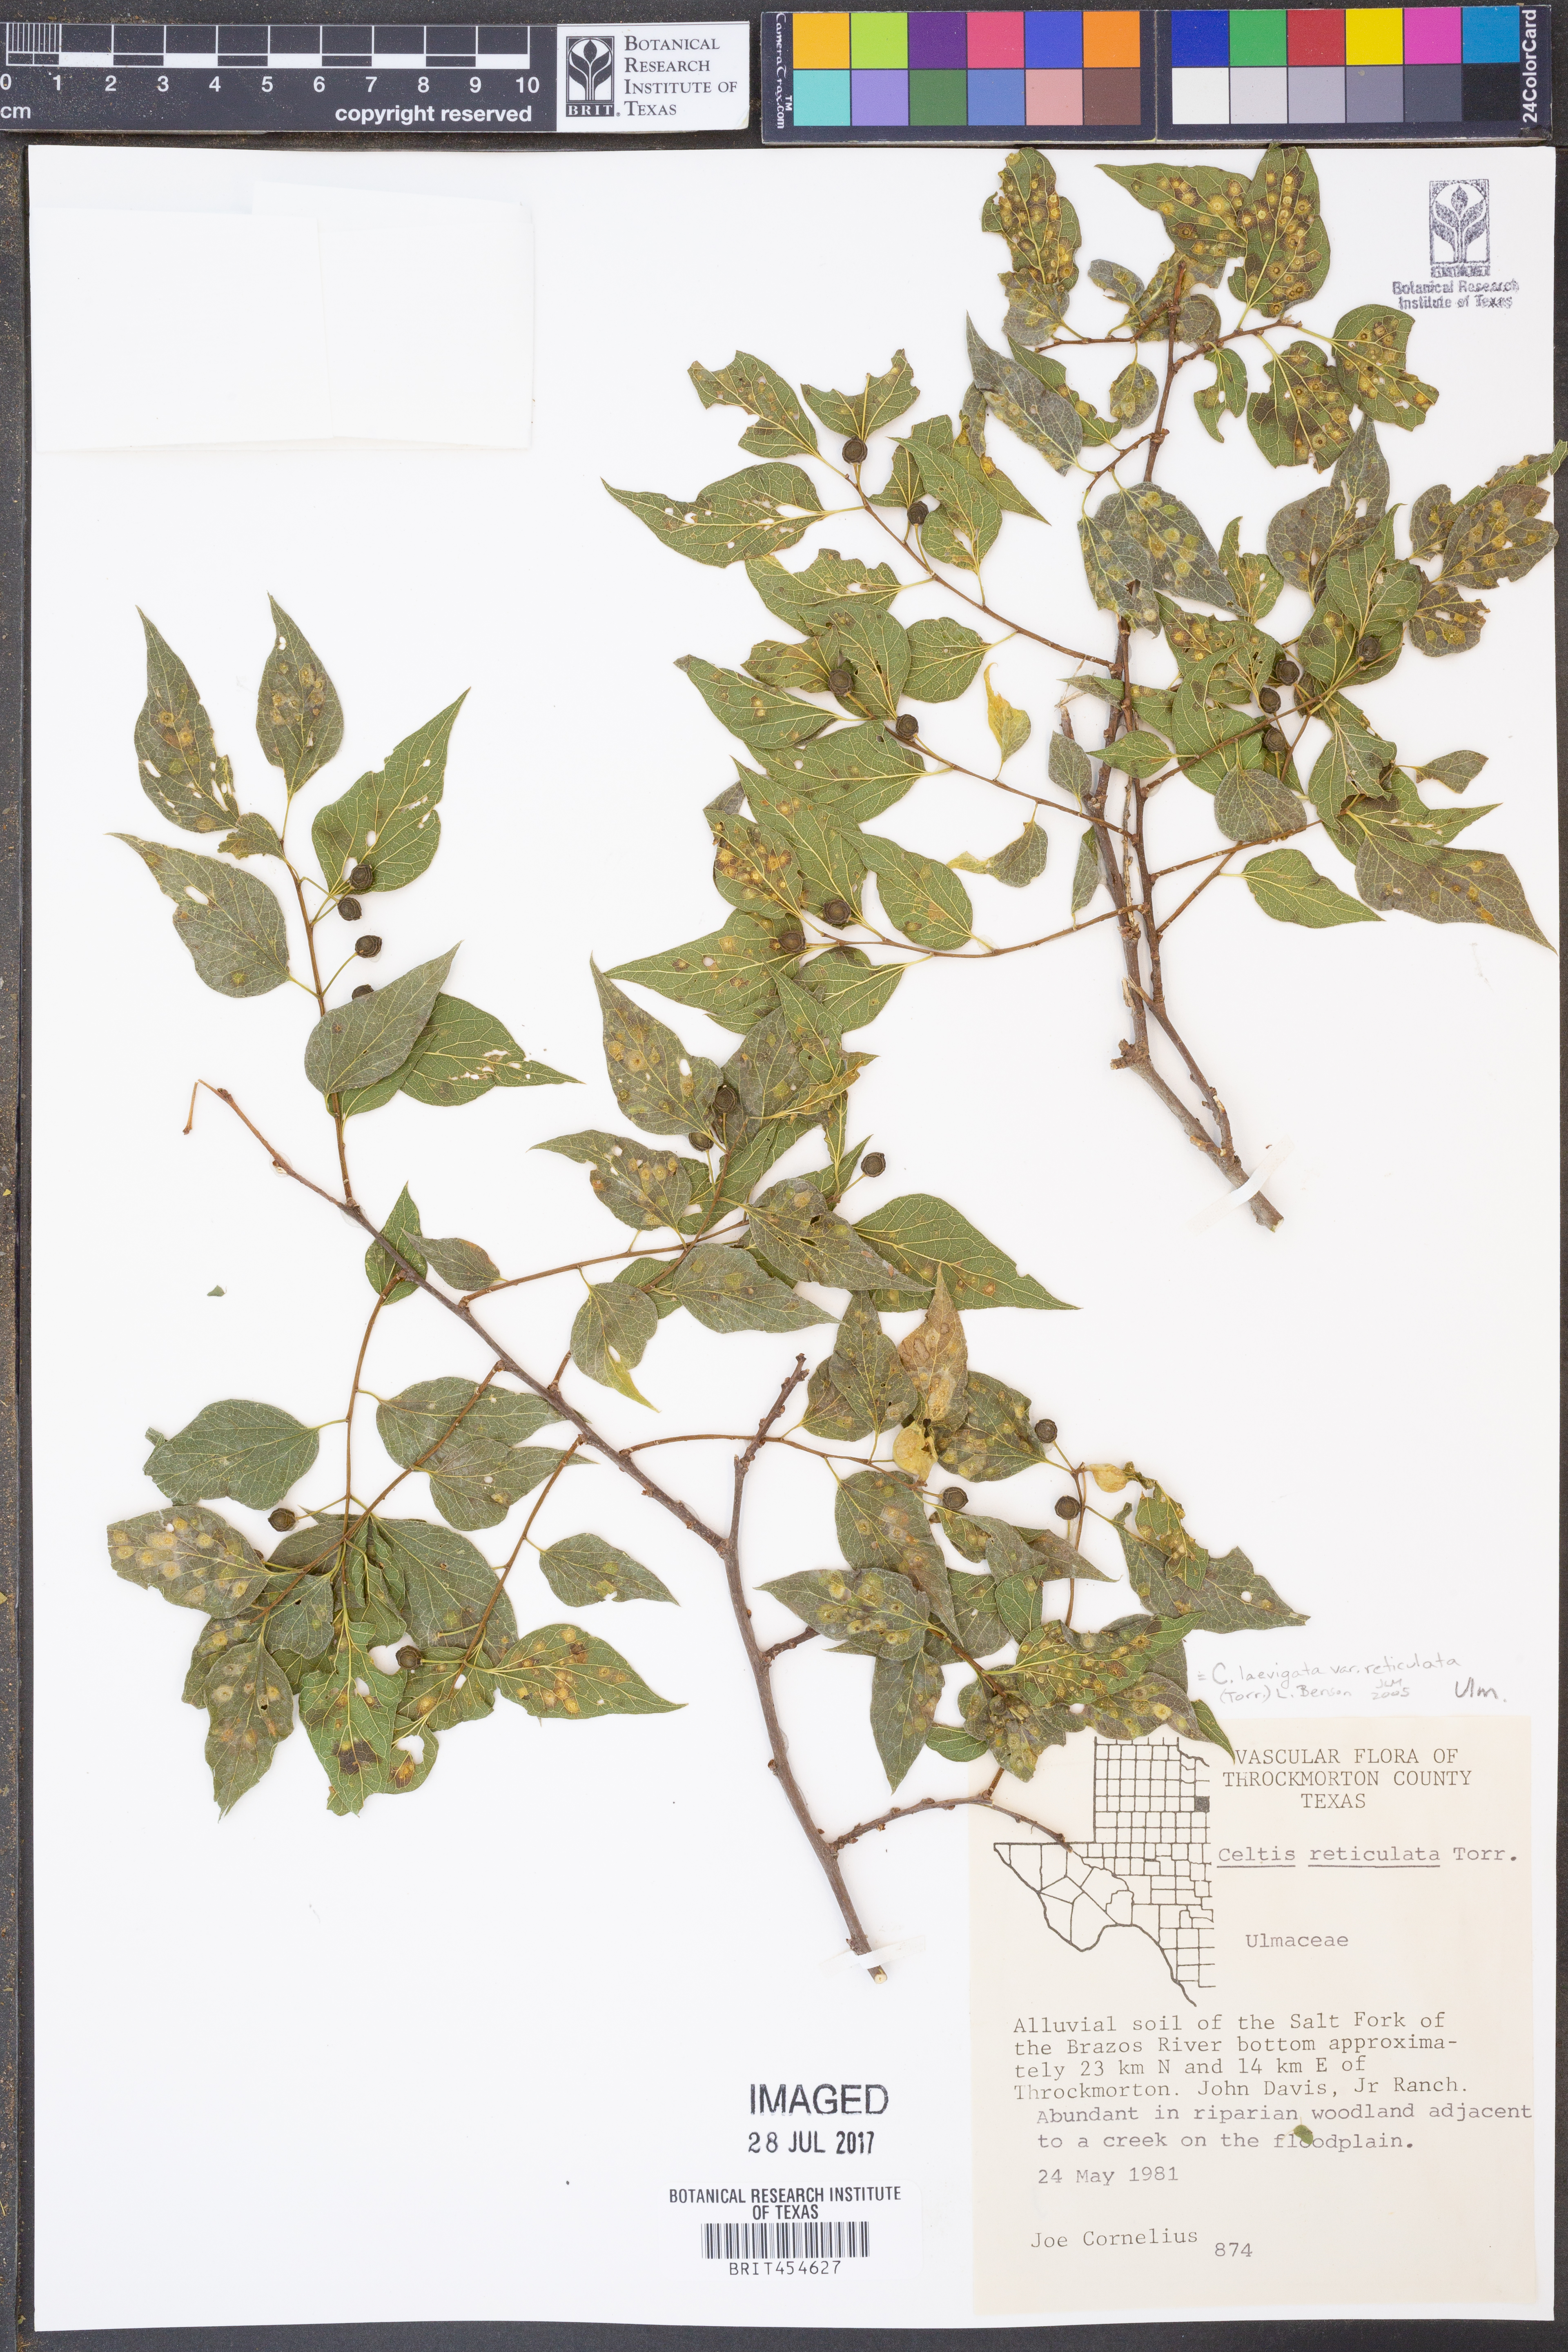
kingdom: Plantae
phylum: Tracheophyta
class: Magnoliopsida
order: Rosales
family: Cannabaceae
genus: Celtis
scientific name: Celtis reticulata
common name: Netleaf hackberry
